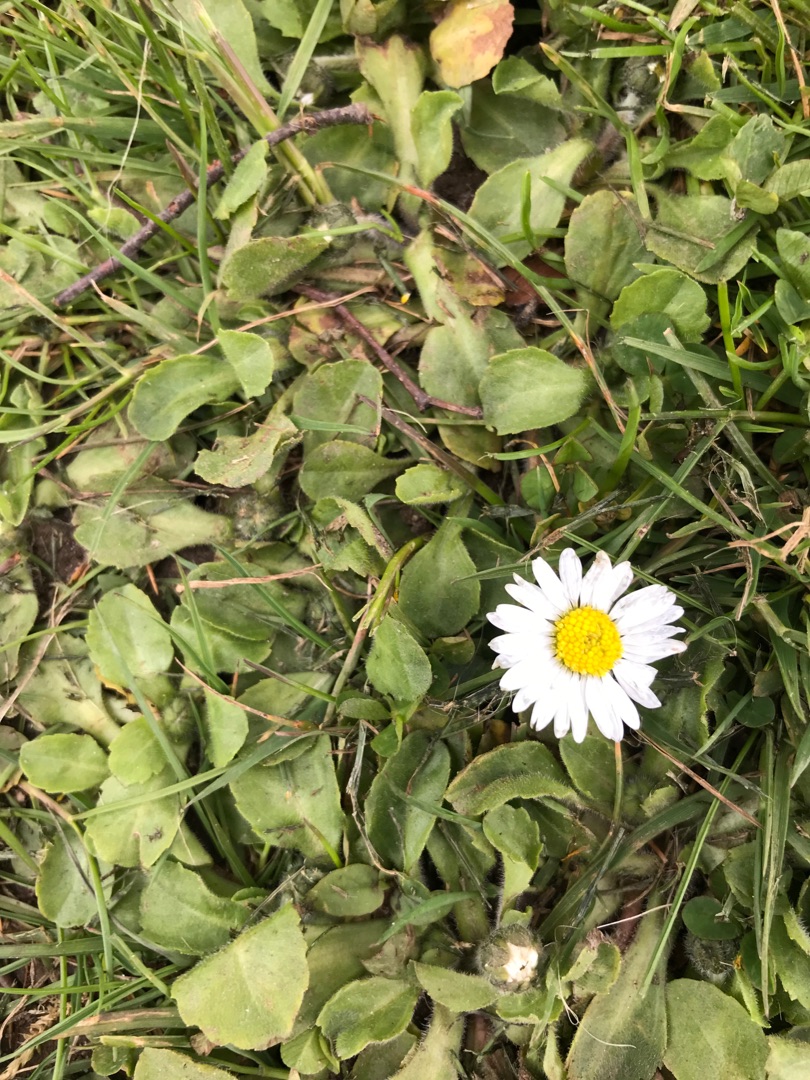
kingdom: Plantae
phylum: Tracheophyta
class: Magnoliopsida
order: Asterales
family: Asteraceae
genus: Bellis
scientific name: Bellis perennis
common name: Tusindfryd
